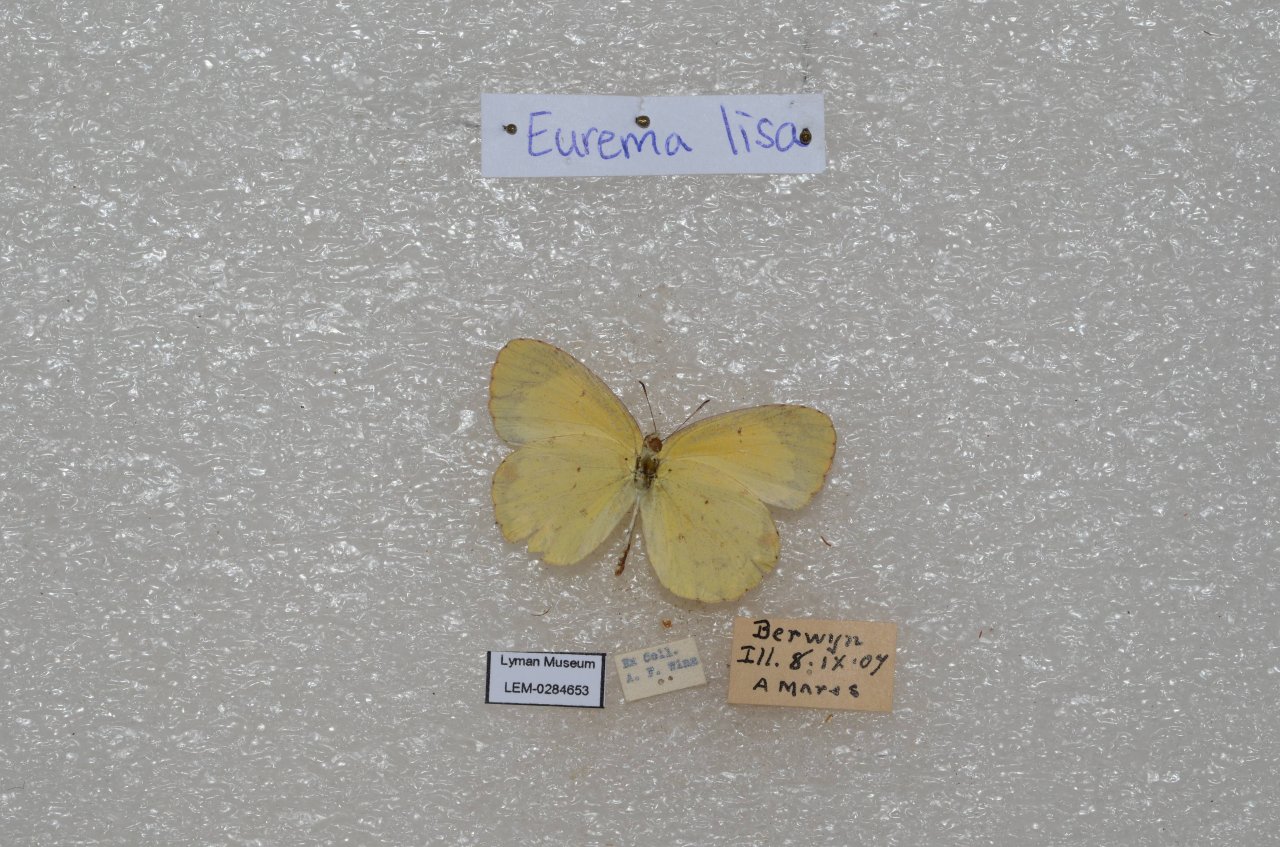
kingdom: Animalia
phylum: Arthropoda
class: Insecta
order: Lepidoptera
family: Pieridae
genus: Pyrisitia
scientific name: Pyrisitia lisa
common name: Little Yellow
